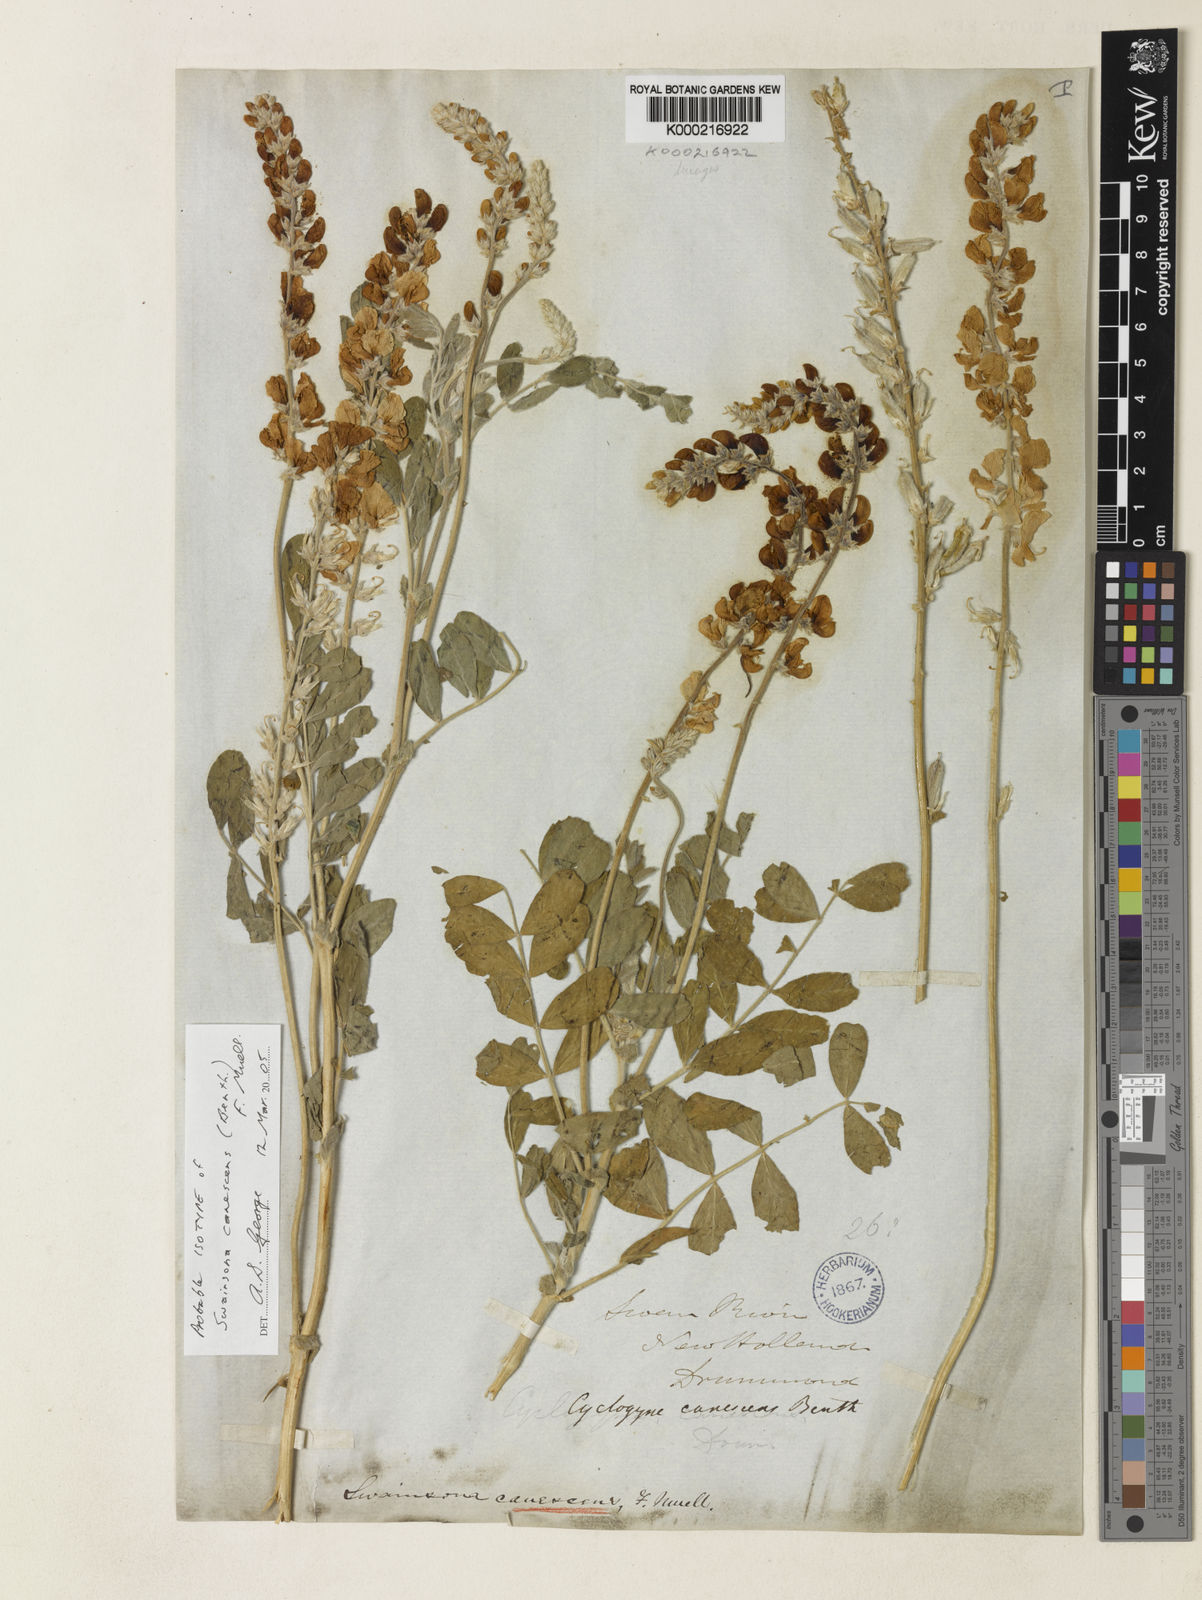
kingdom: Plantae
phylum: Tracheophyta
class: Magnoliopsida
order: Fabales
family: Fabaceae
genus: Swainsona
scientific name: Swainsona canescens
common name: Grey swainsona
